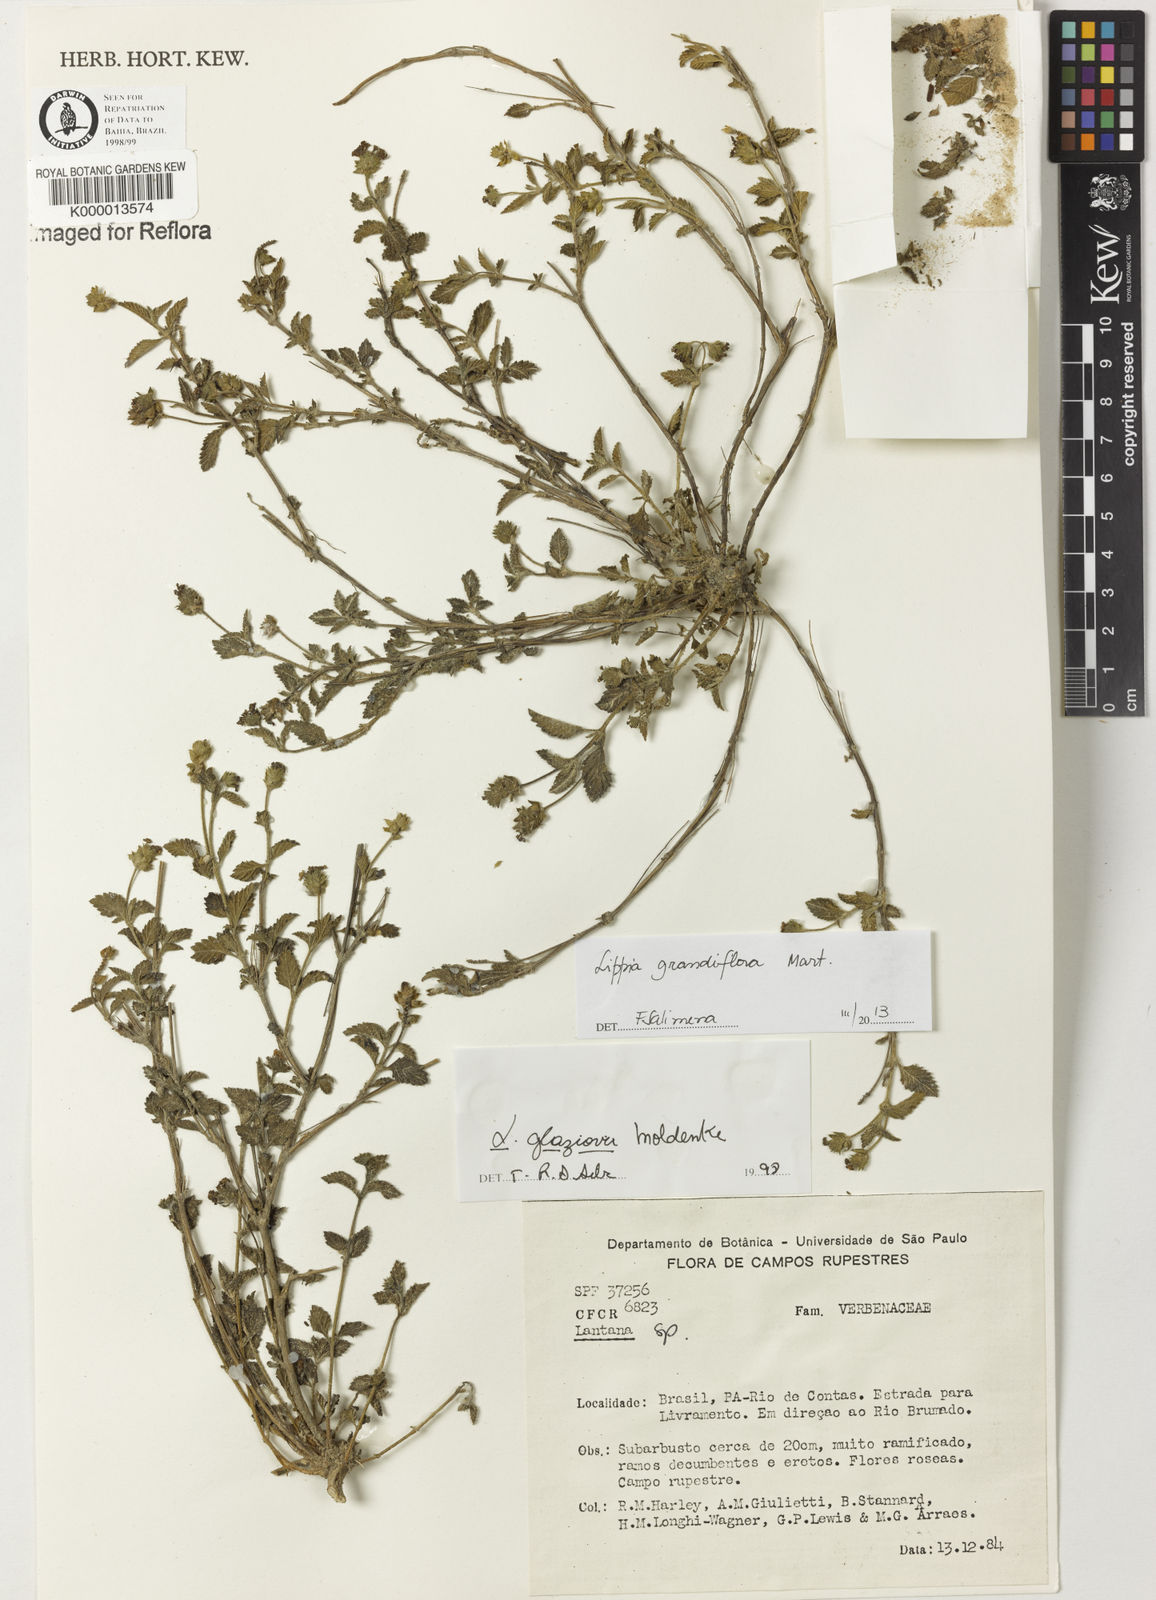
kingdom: Plantae
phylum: Tracheophyta
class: Magnoliopsida
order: Lamiales
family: Verbenaceae
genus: Lantana
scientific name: Lantana glaziovii
